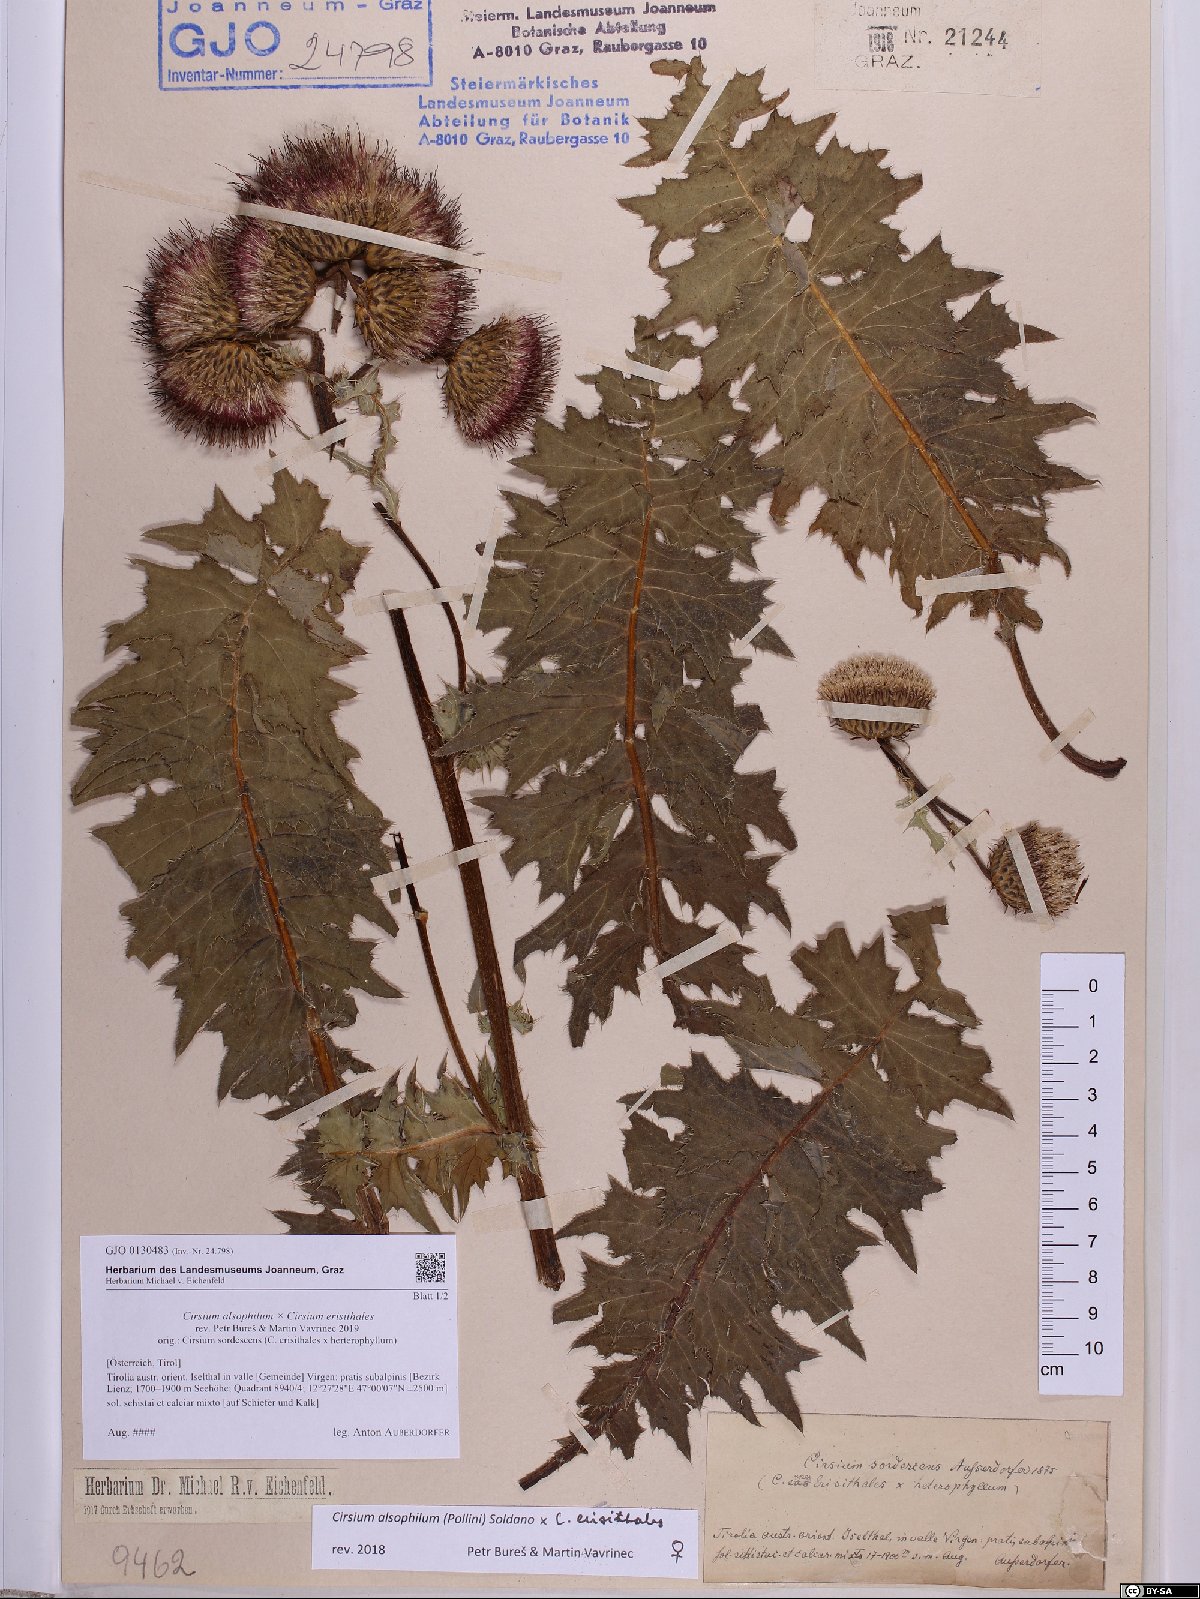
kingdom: Plantae
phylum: Tracheophyta
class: Magnoliopsida
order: Asterales
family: Asteraceae
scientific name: Asteraceae
